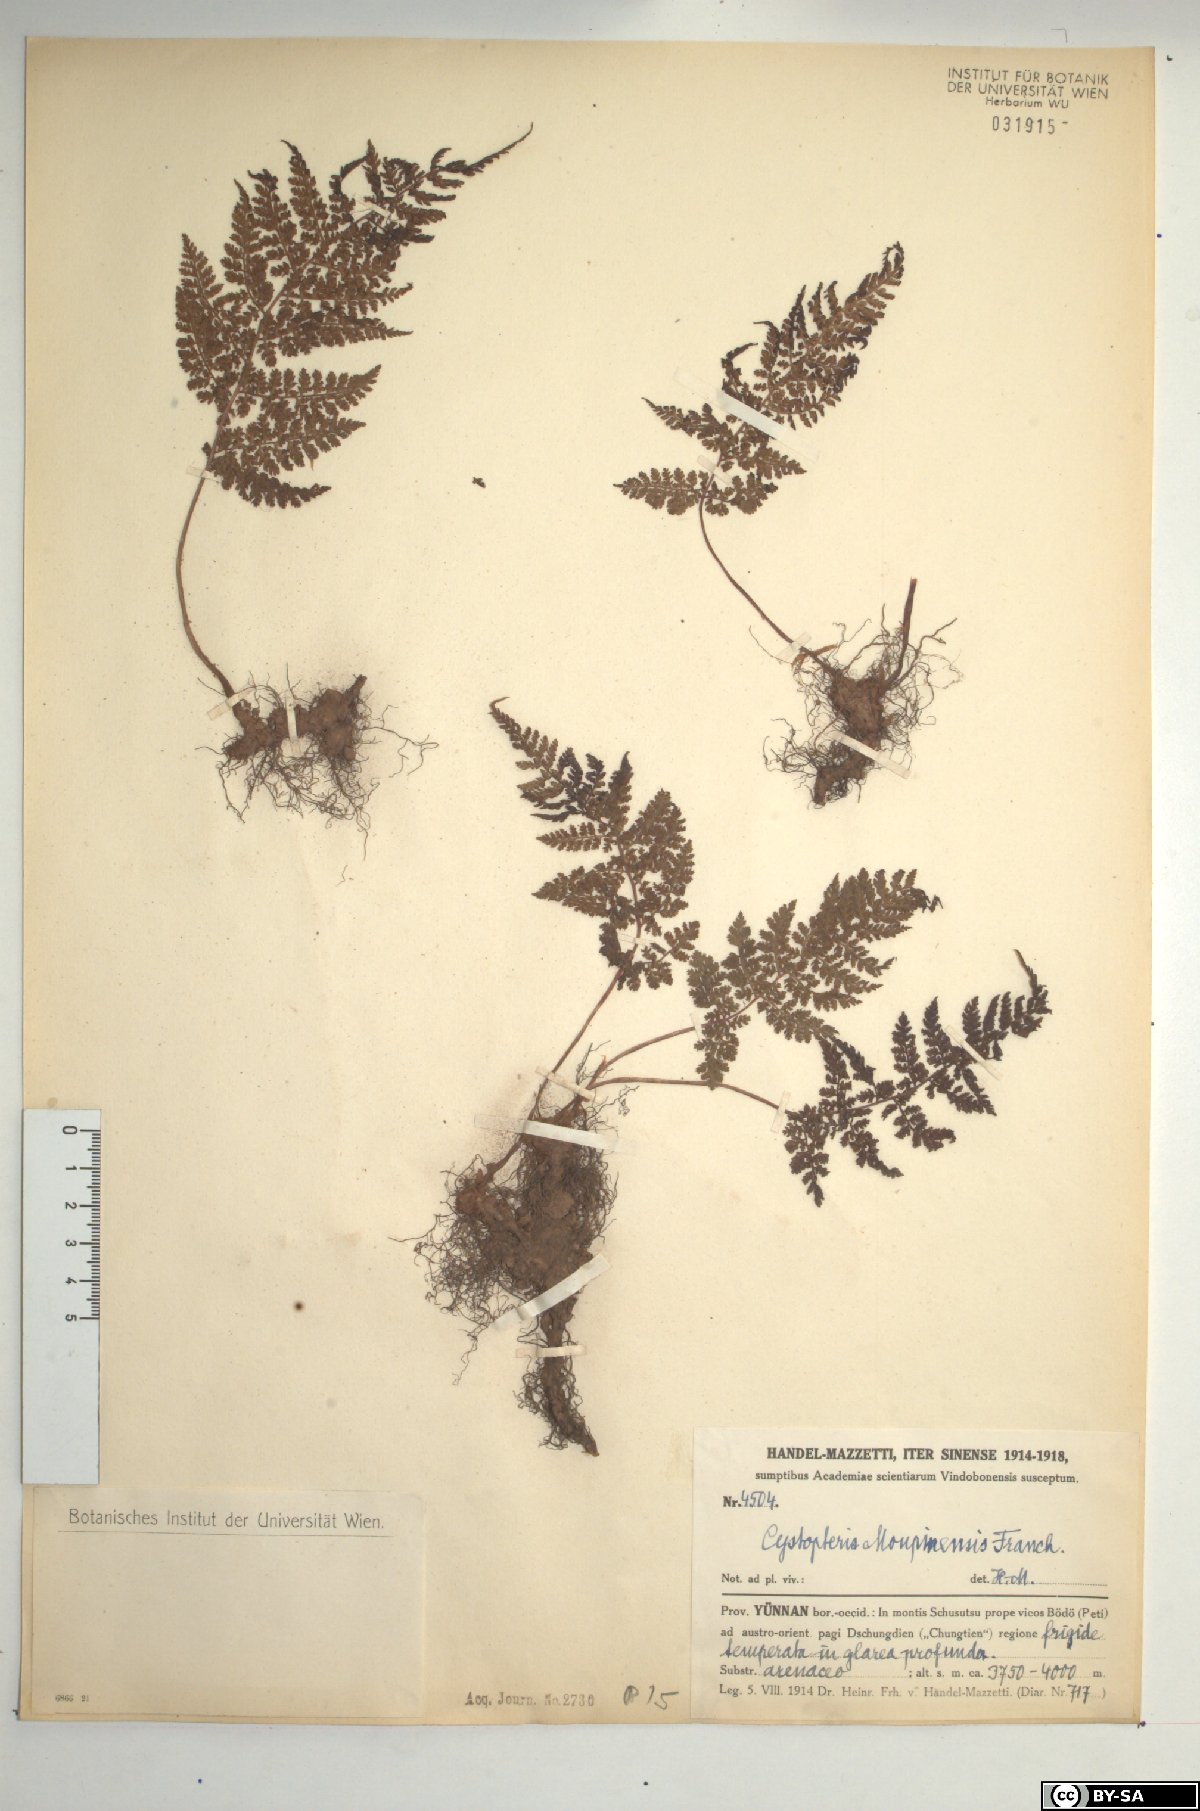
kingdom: Plantae
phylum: Tracheophyta
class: Polypodiopsida
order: Polypodiales
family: Cystopteridaceae
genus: Cystopteris
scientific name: Cystopteris moupinensis
